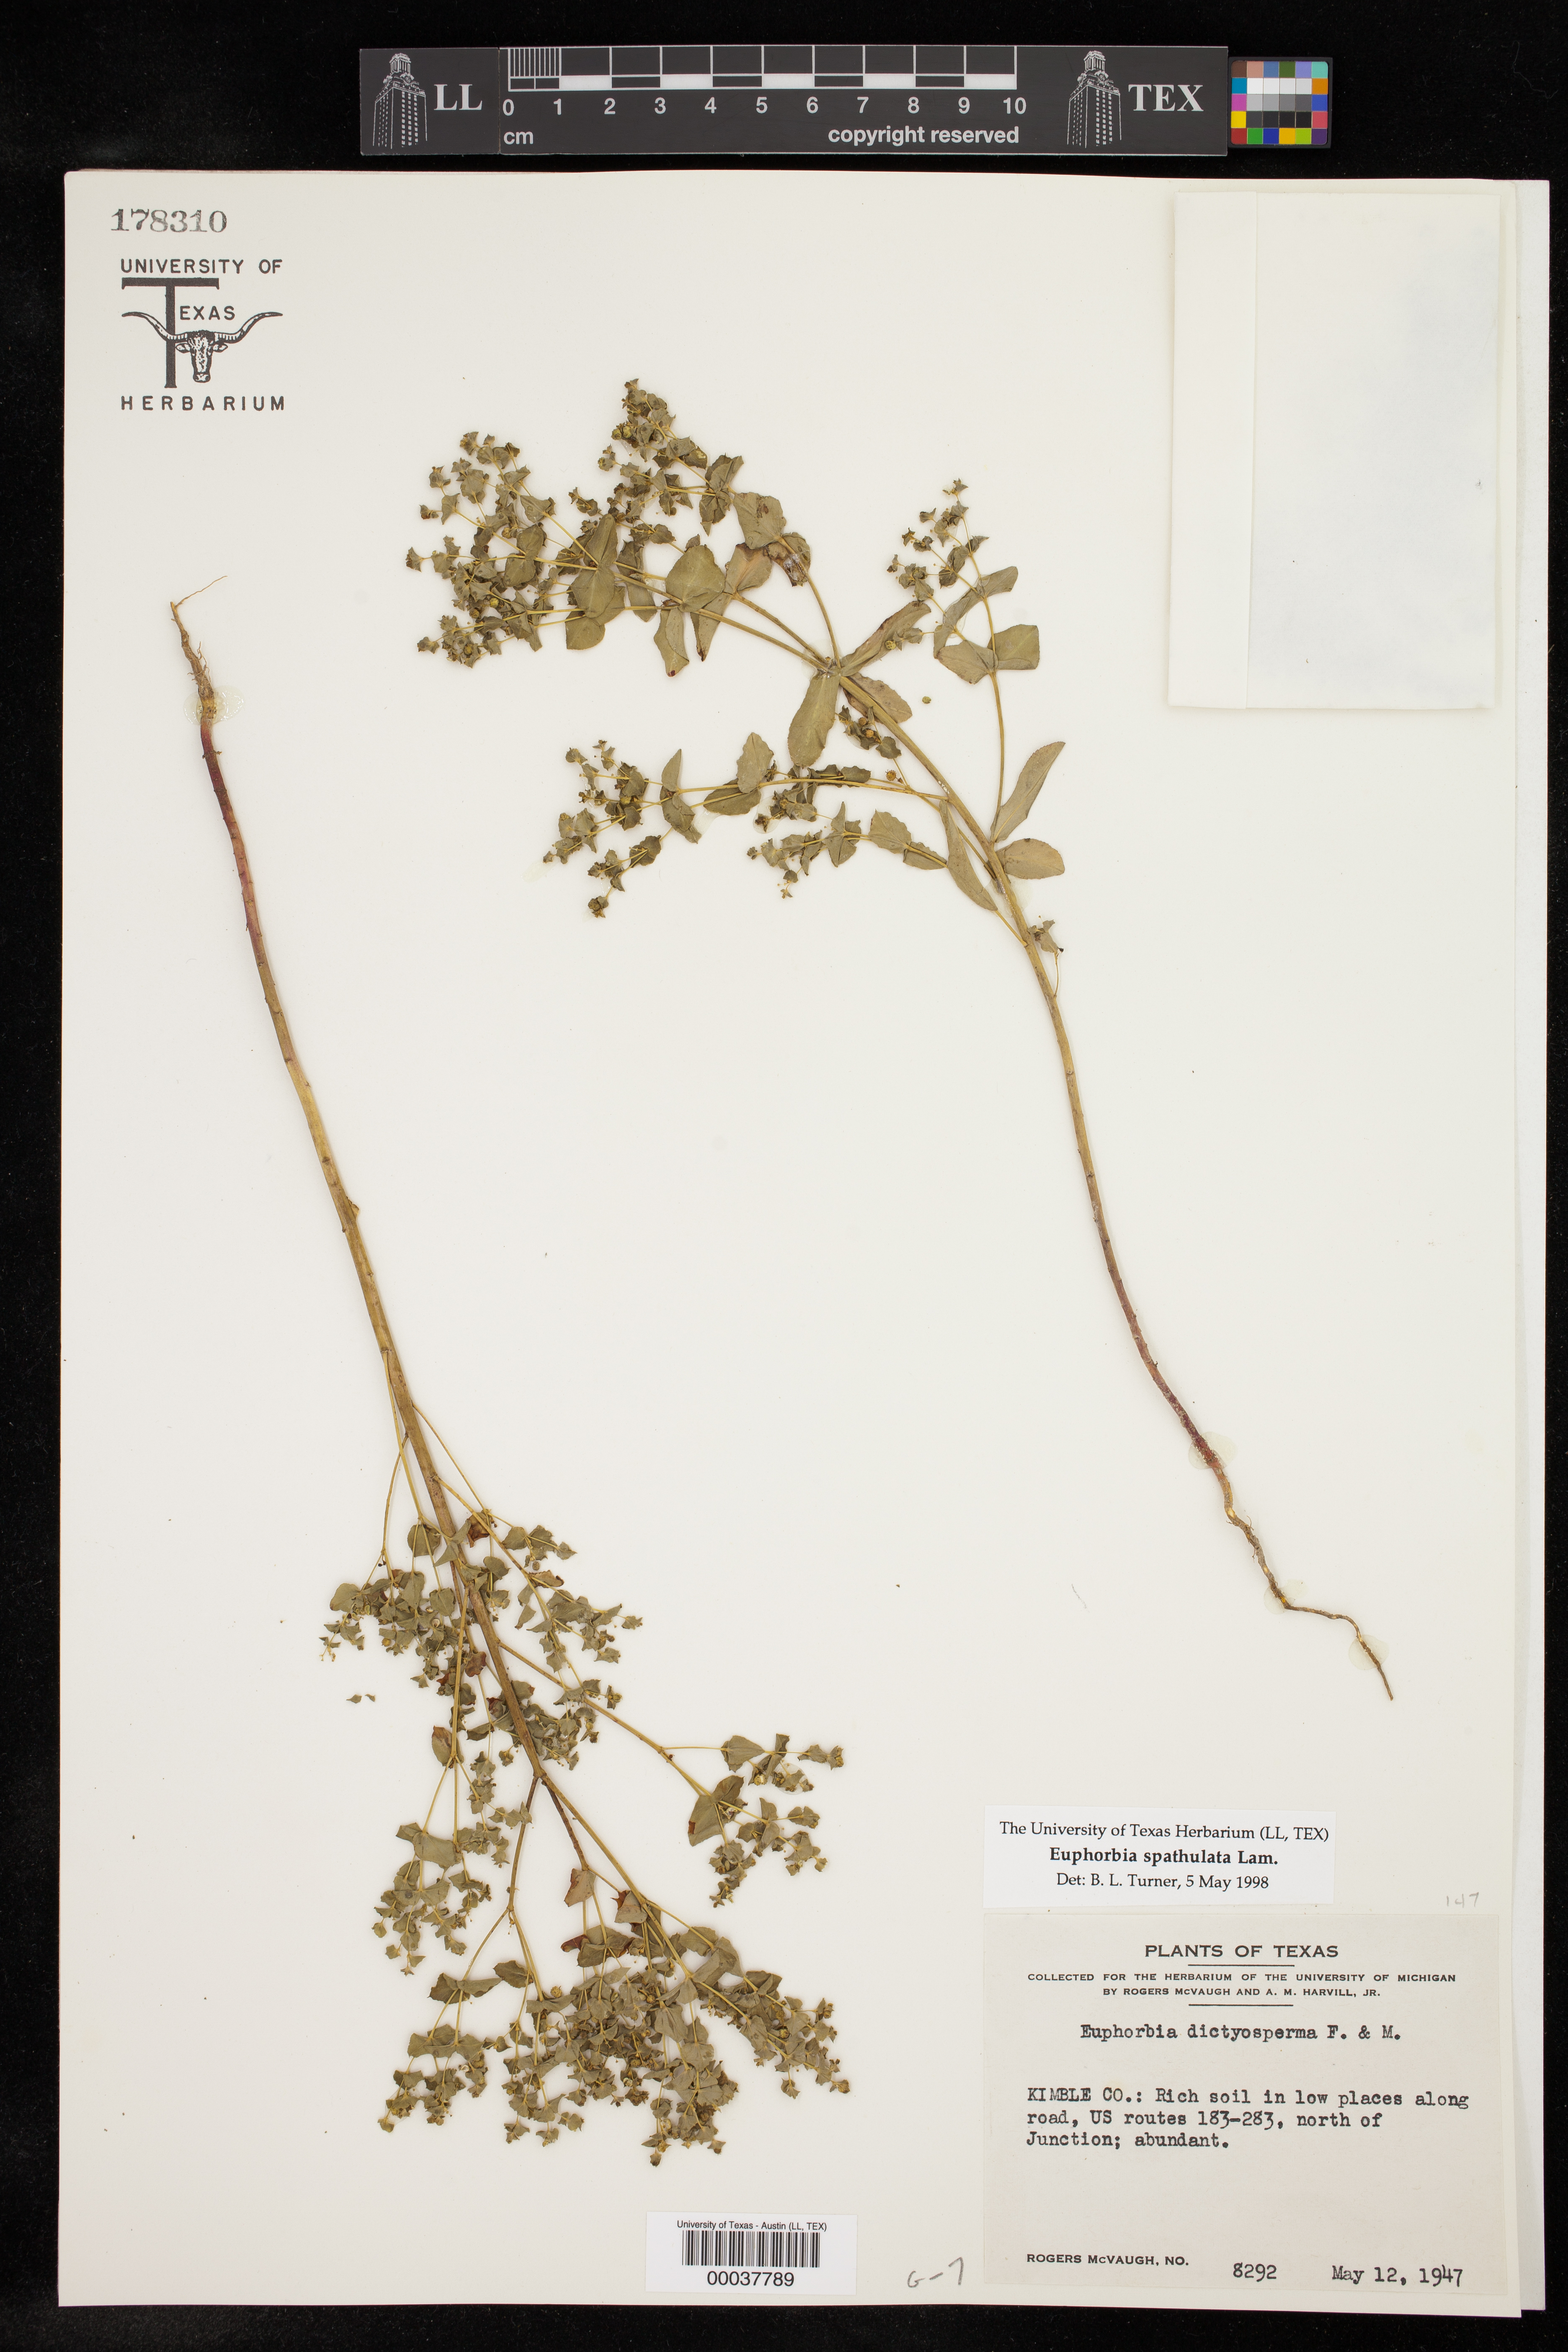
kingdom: Plantae
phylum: Tracheophyta
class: Magnoliopsida
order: Malpighiales
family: Euphorbiaceae
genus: Euphorbia
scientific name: Euphorbia spathulata
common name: Blunt spurge
